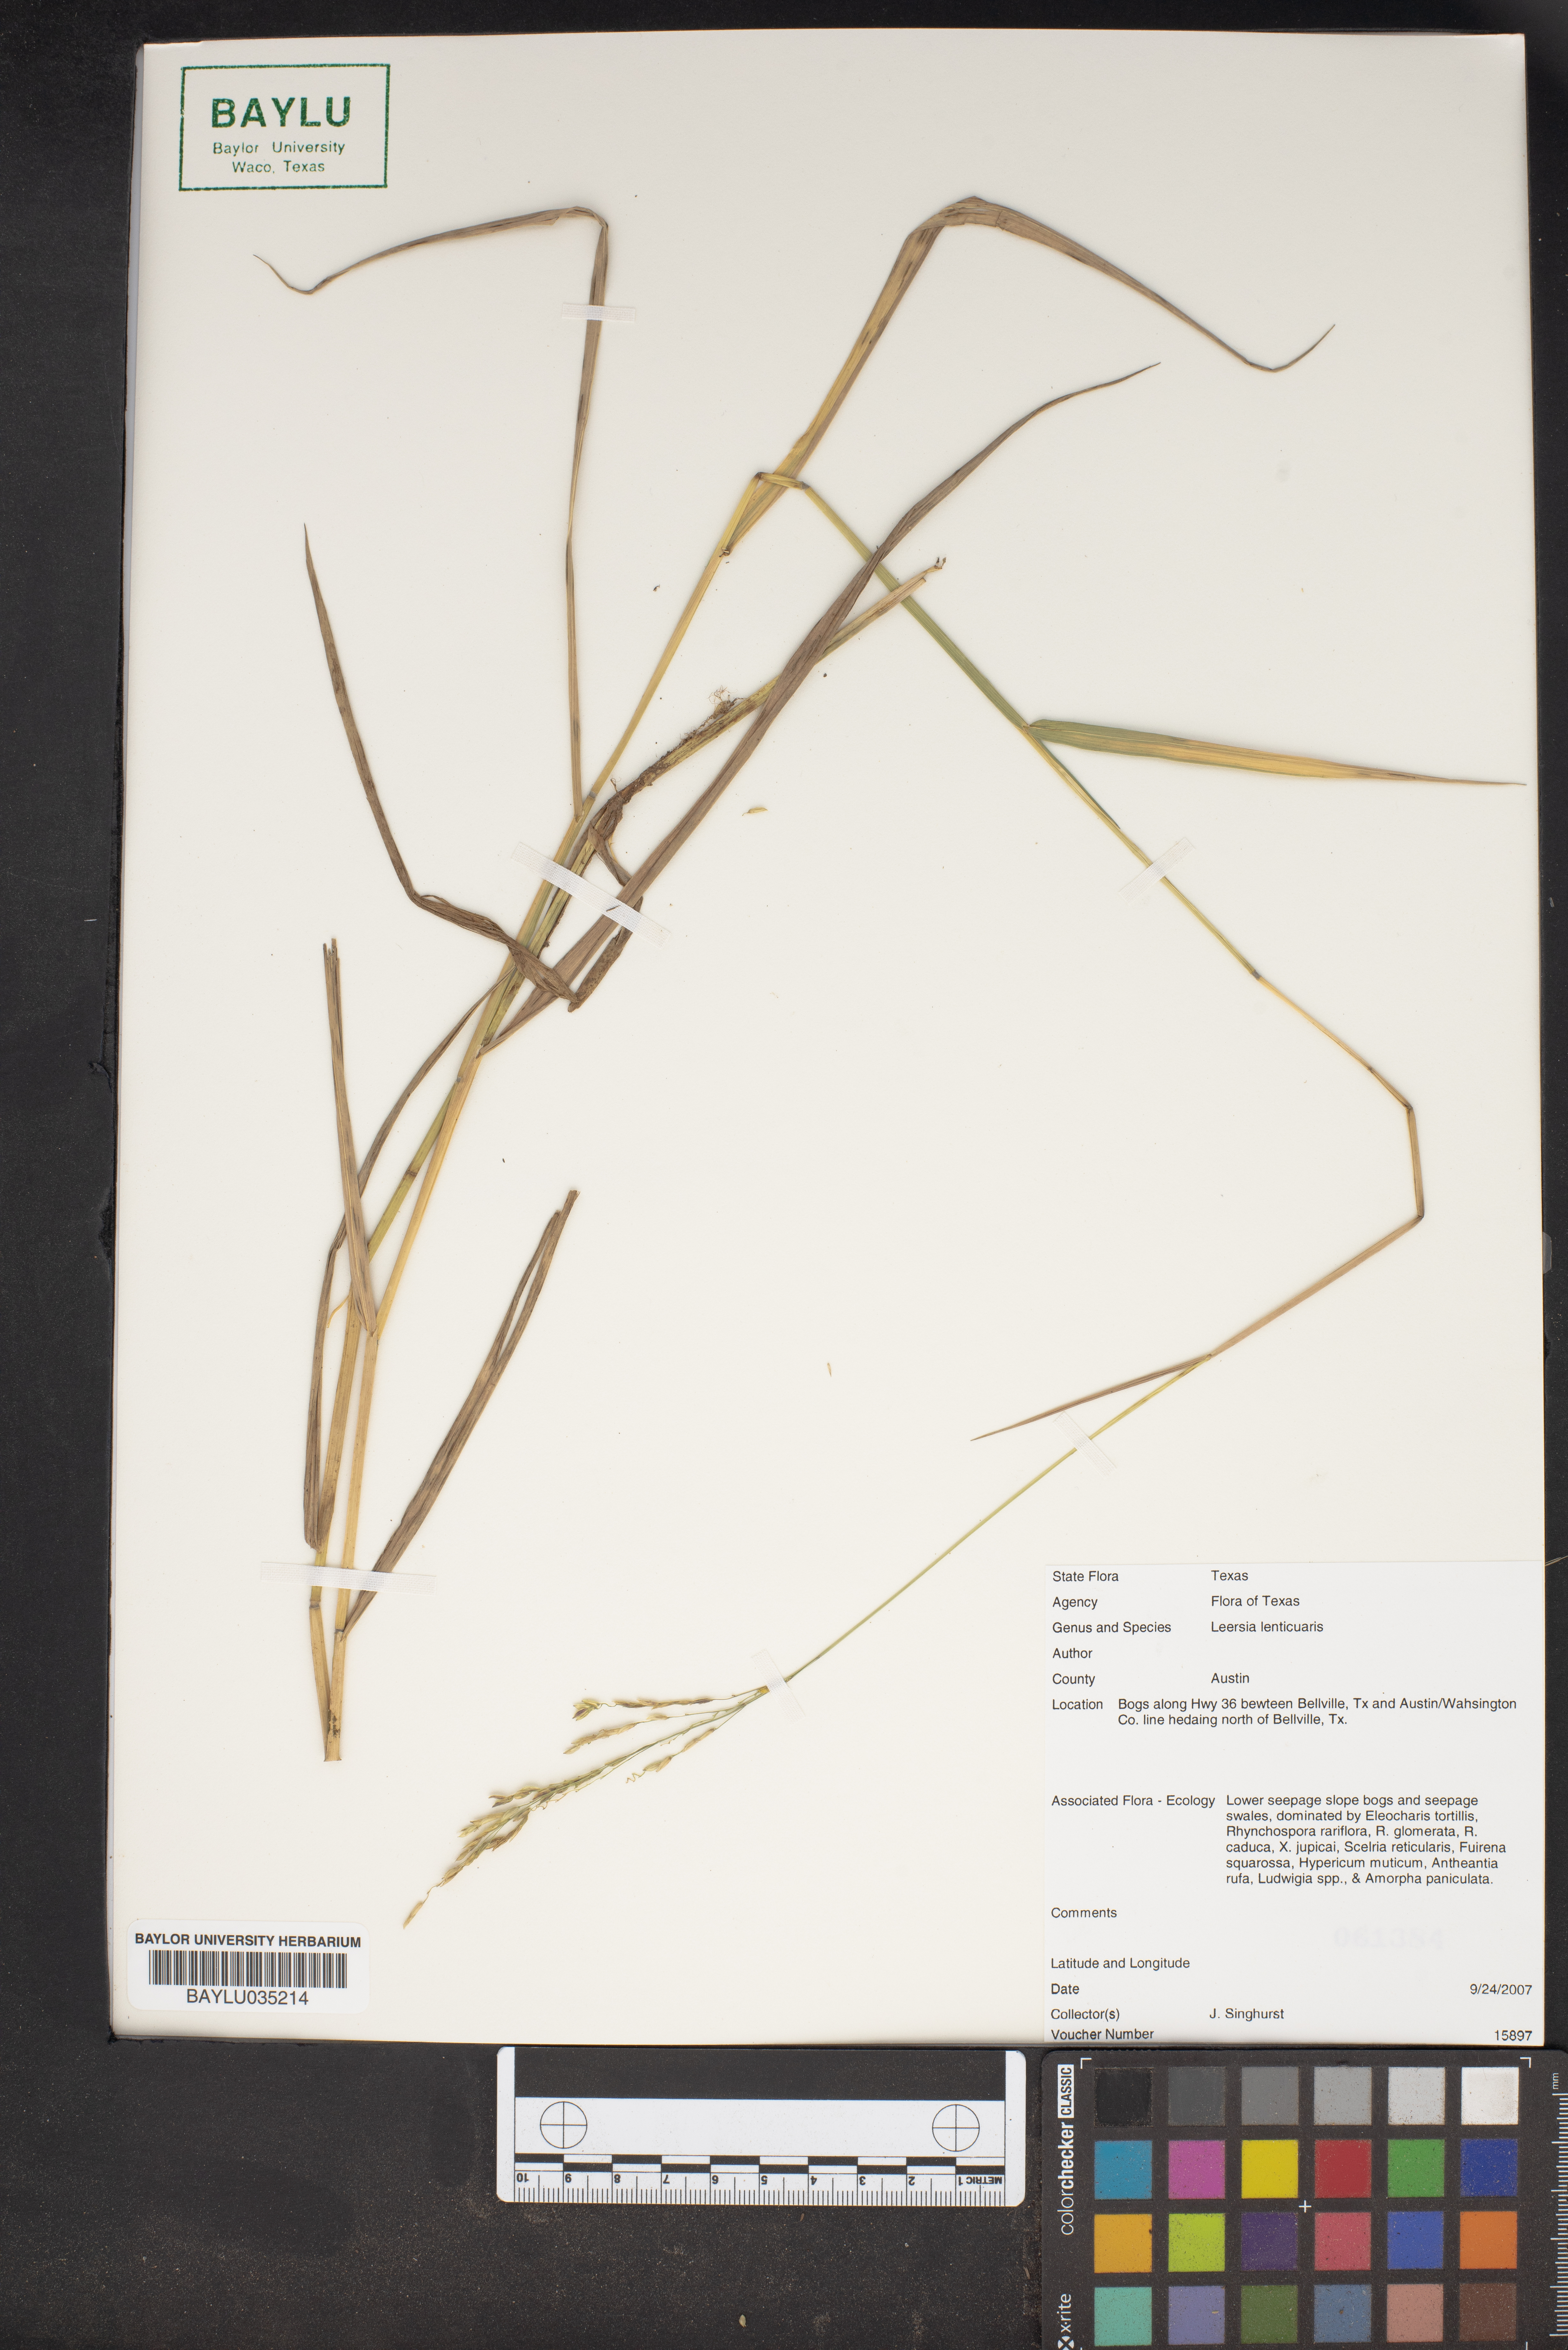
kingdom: Plantae
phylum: Tracheophyta
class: Liliopsida
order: Poales
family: Poaceae
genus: Leersia
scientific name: Leersia lenticularis
